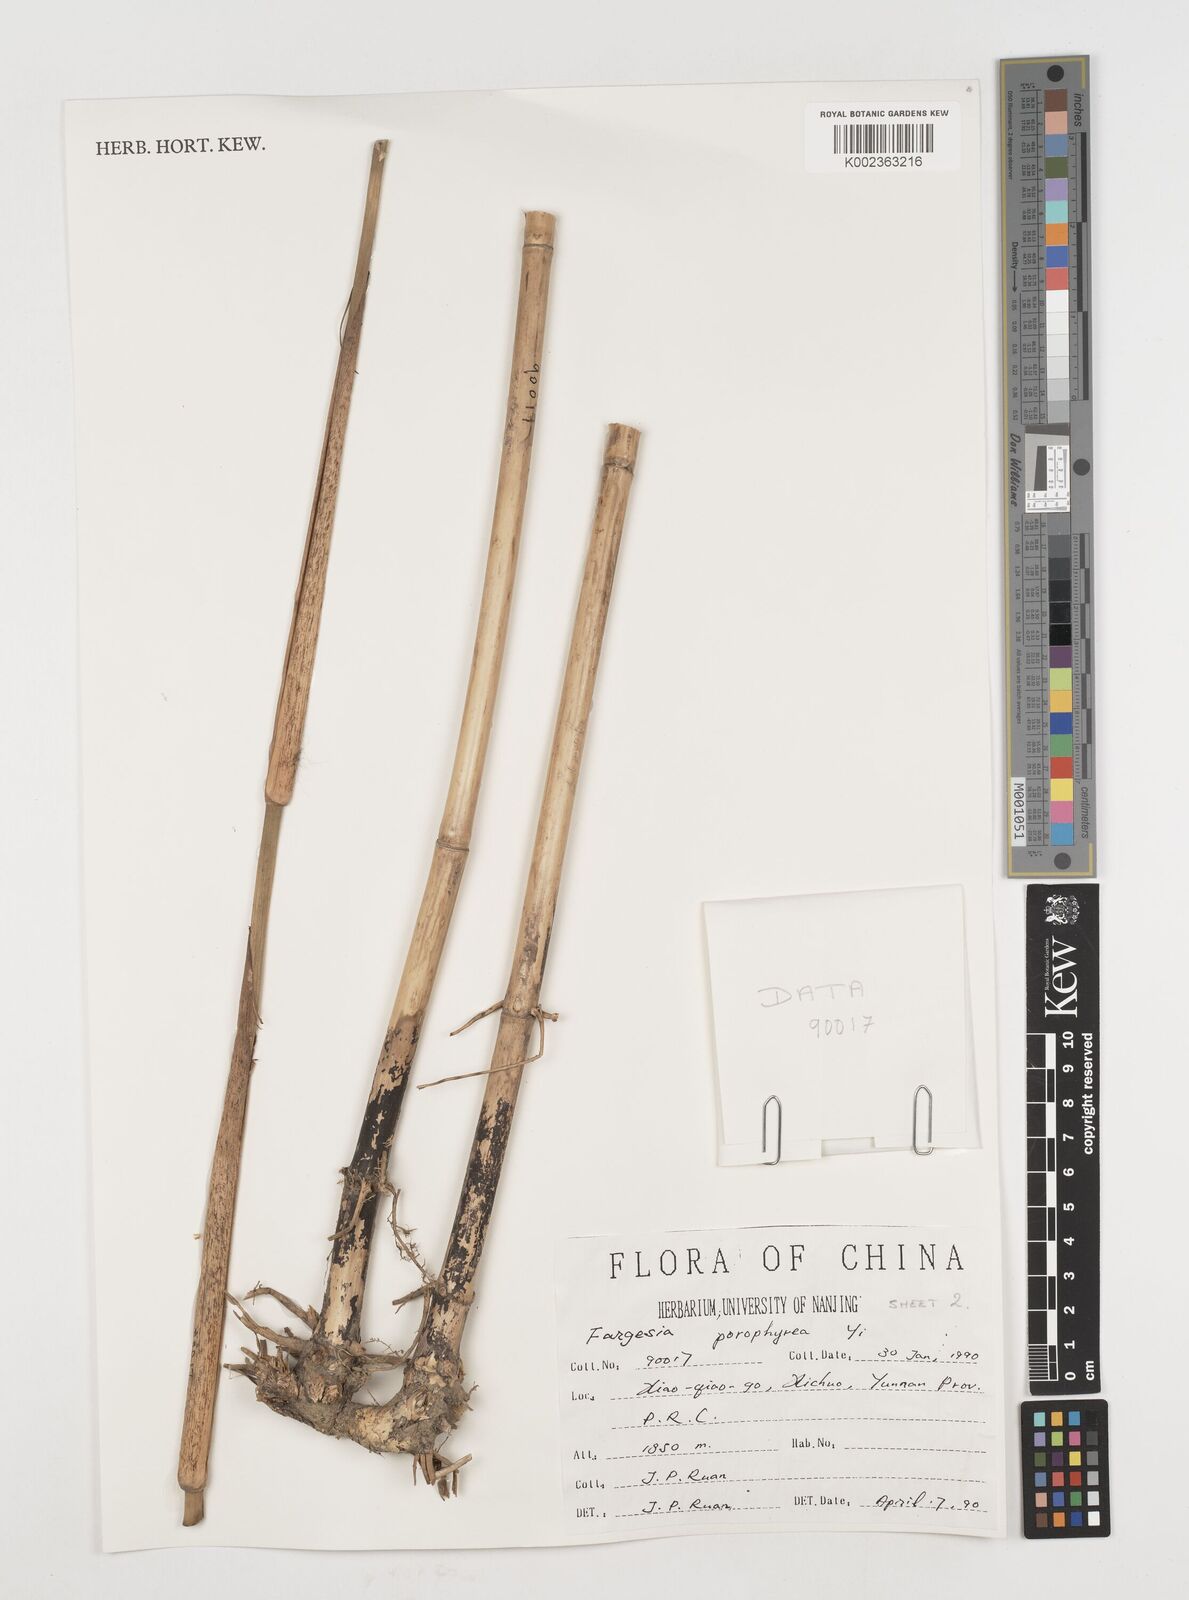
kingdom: Plantae
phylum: Tracheophyta
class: Liliopsida
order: Poales
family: Poaceae
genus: Fargesia
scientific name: Fargesia porphyrea
